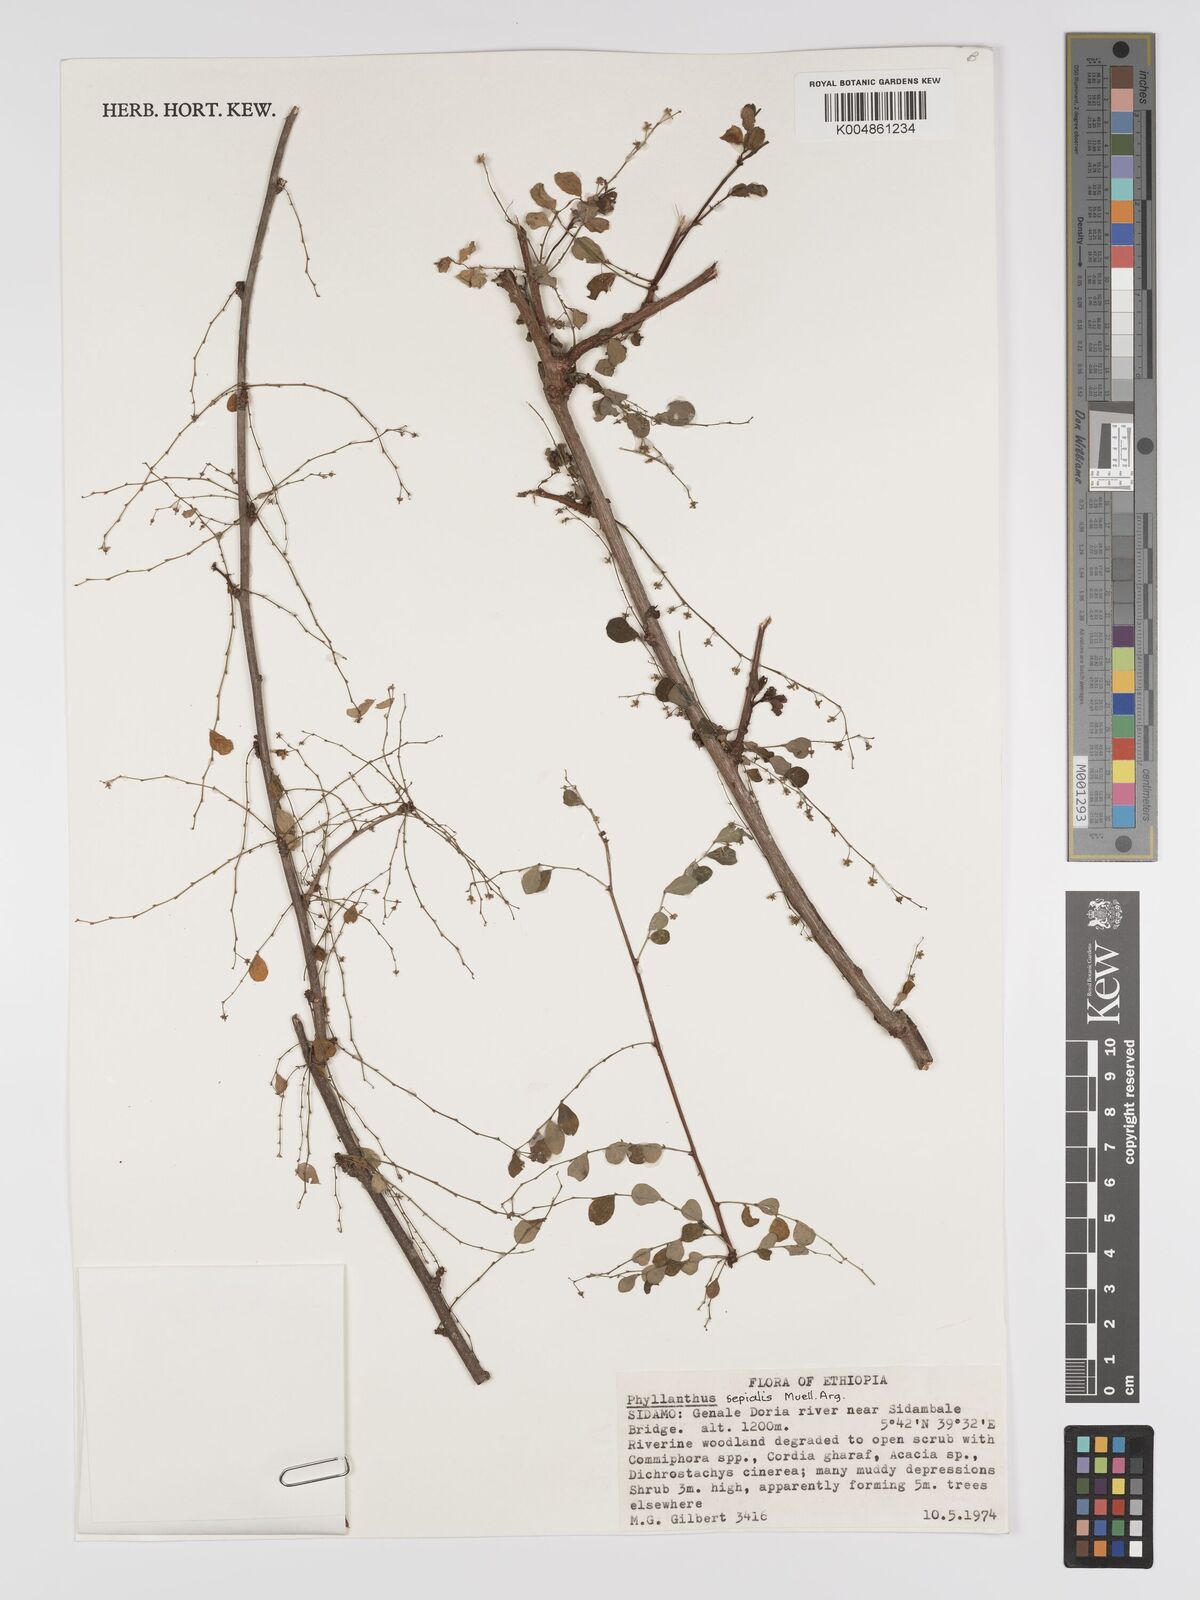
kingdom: Plantae
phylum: Tracheophyta
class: Magnoliopsida
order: Malpighiales
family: Phyllanthaceae
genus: Phyllanthus
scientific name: Phyllanthus sepialis
